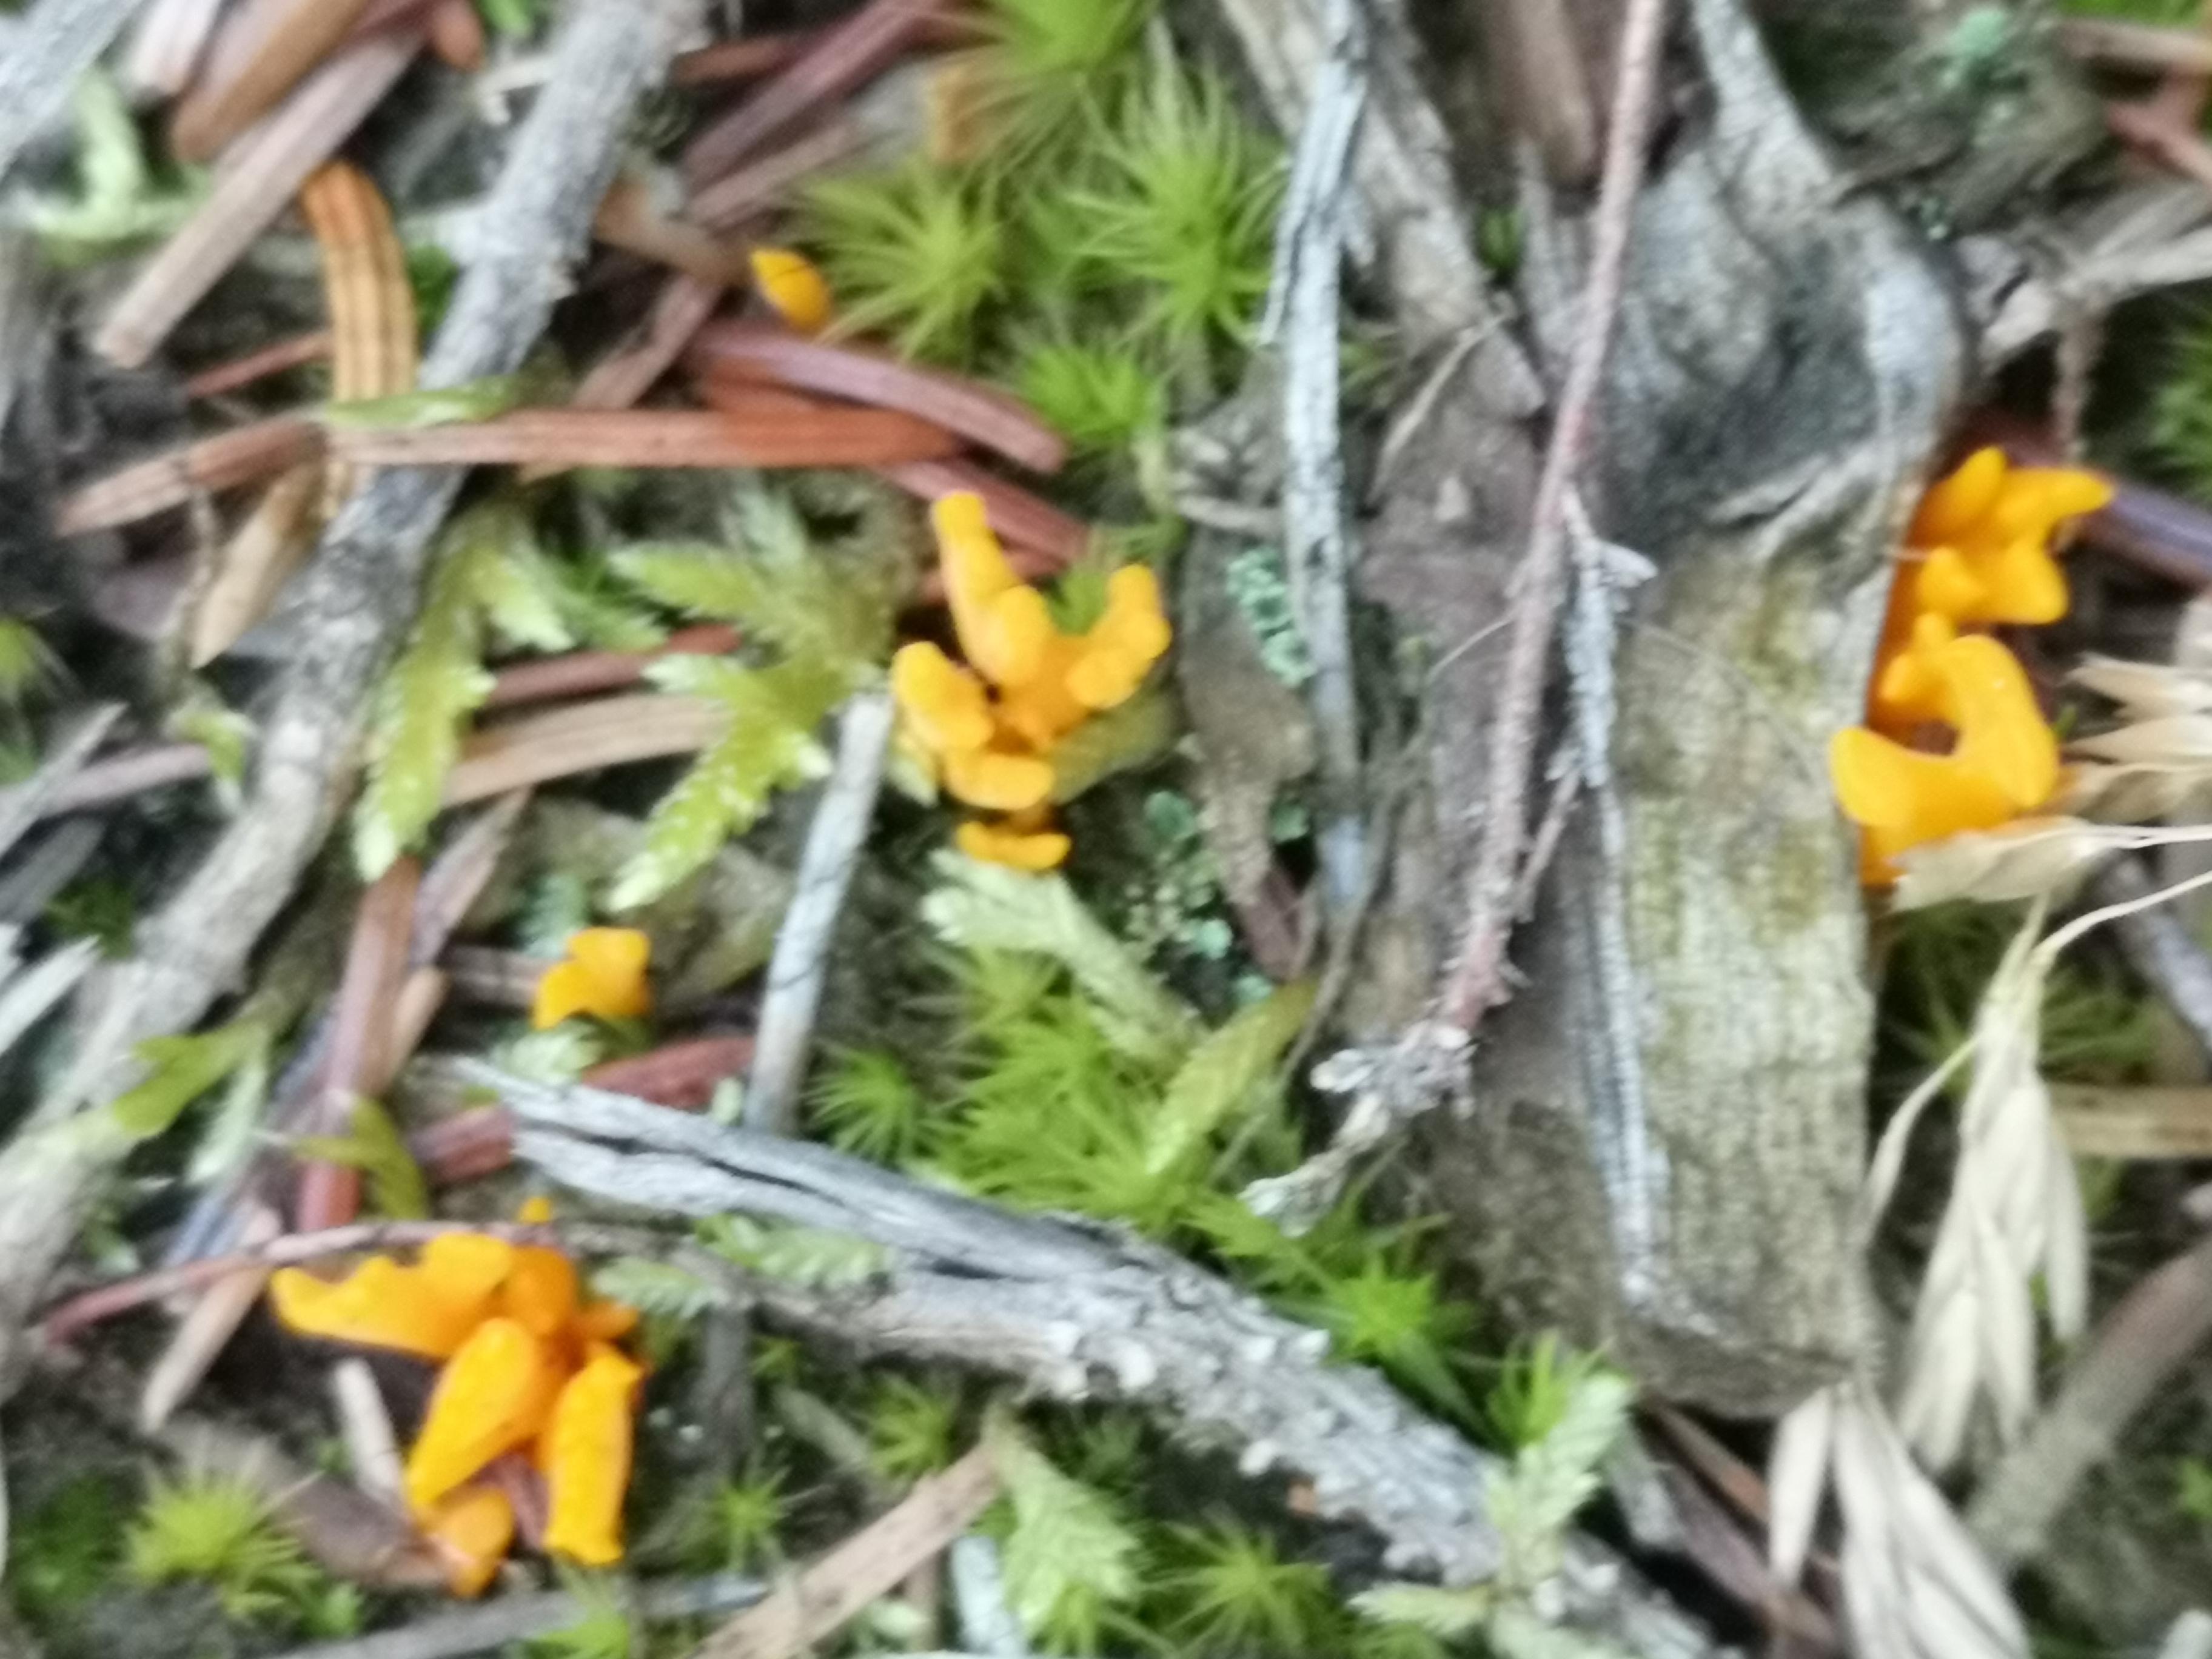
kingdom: Fungi
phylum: Basidiomycota
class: Dacrymycetes
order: Dacrymycetales
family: Dacrymycetaceae
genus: Calocera
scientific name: Calocera viscosa
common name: almindelig guldgaffel
